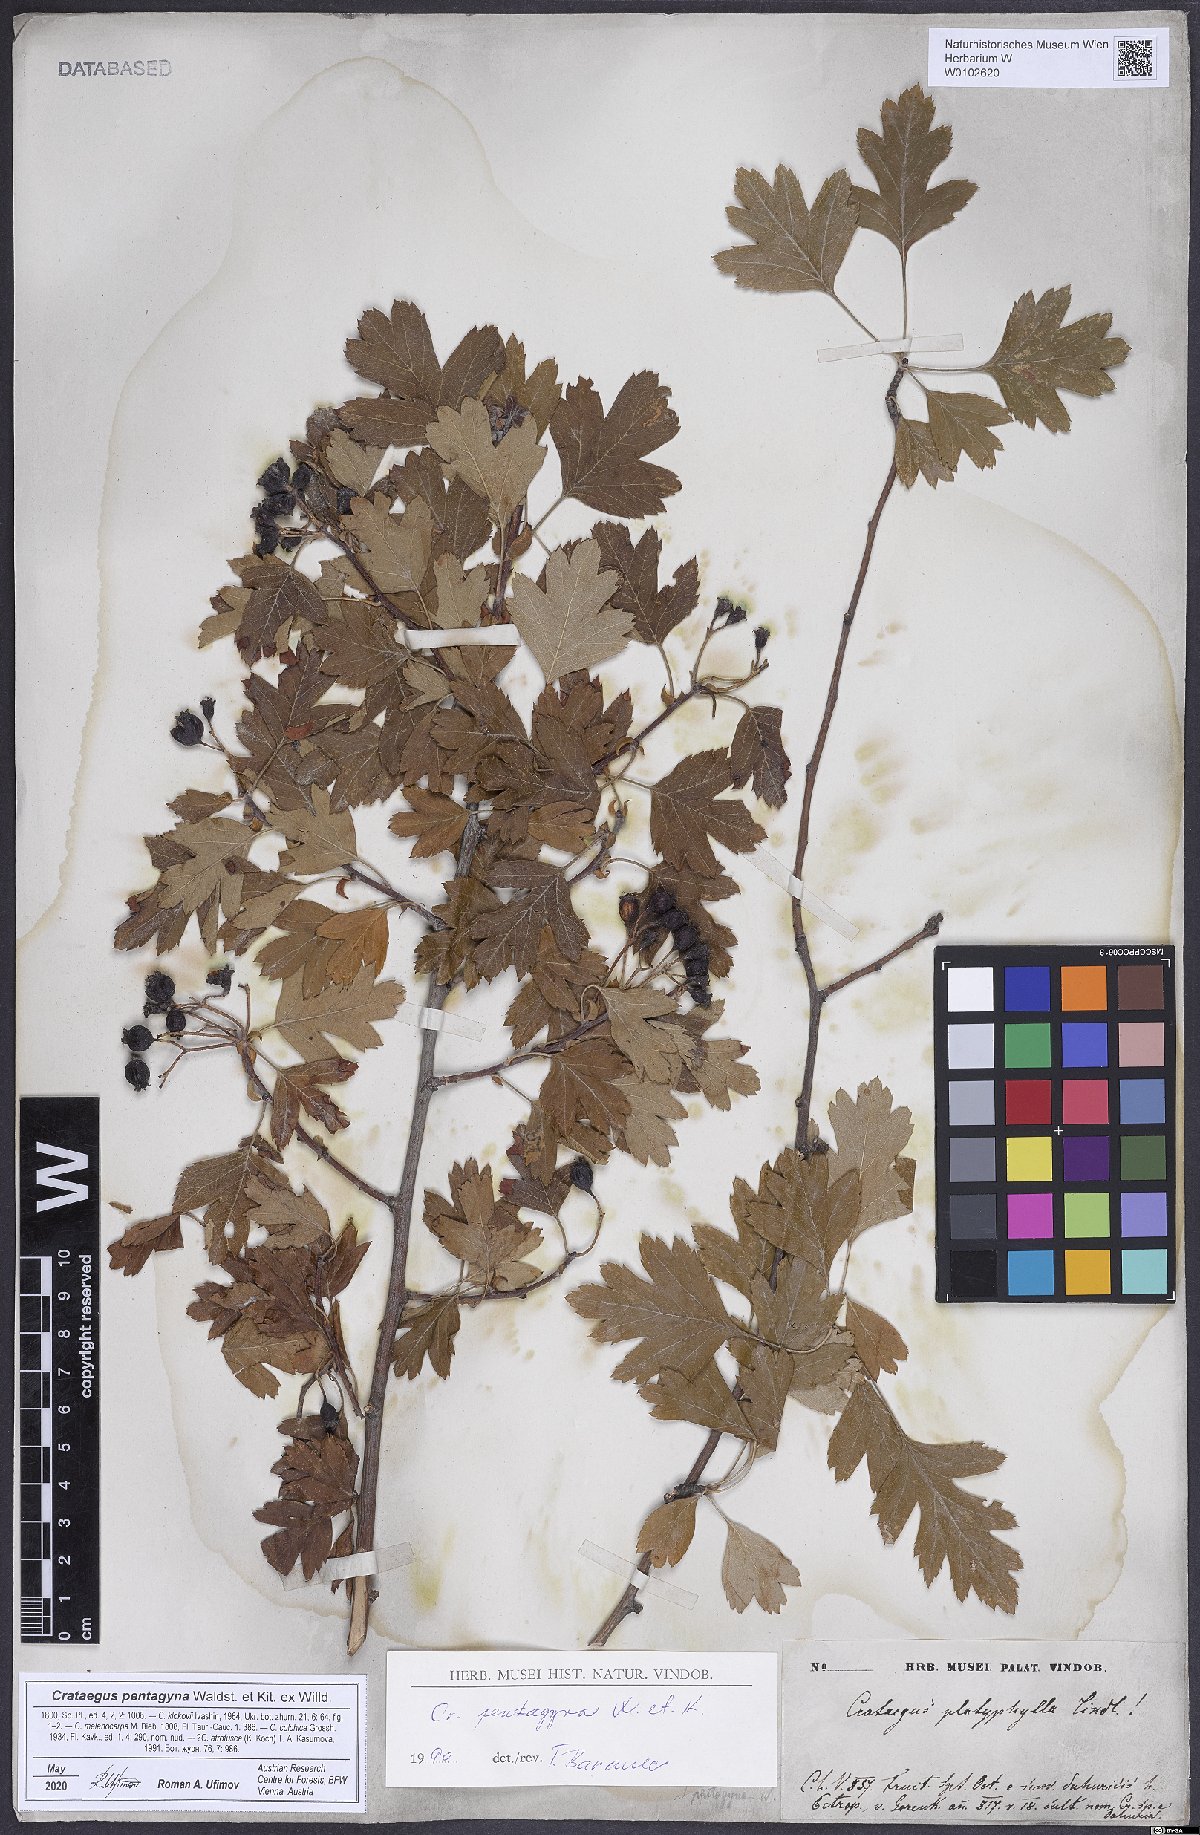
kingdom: Plantae
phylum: Tracheophyta
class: Magnoliopsida
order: Rosales
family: Rosaceae
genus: Crataegus
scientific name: Crataegus pentagyna
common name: Small-flowered black hawthorn
